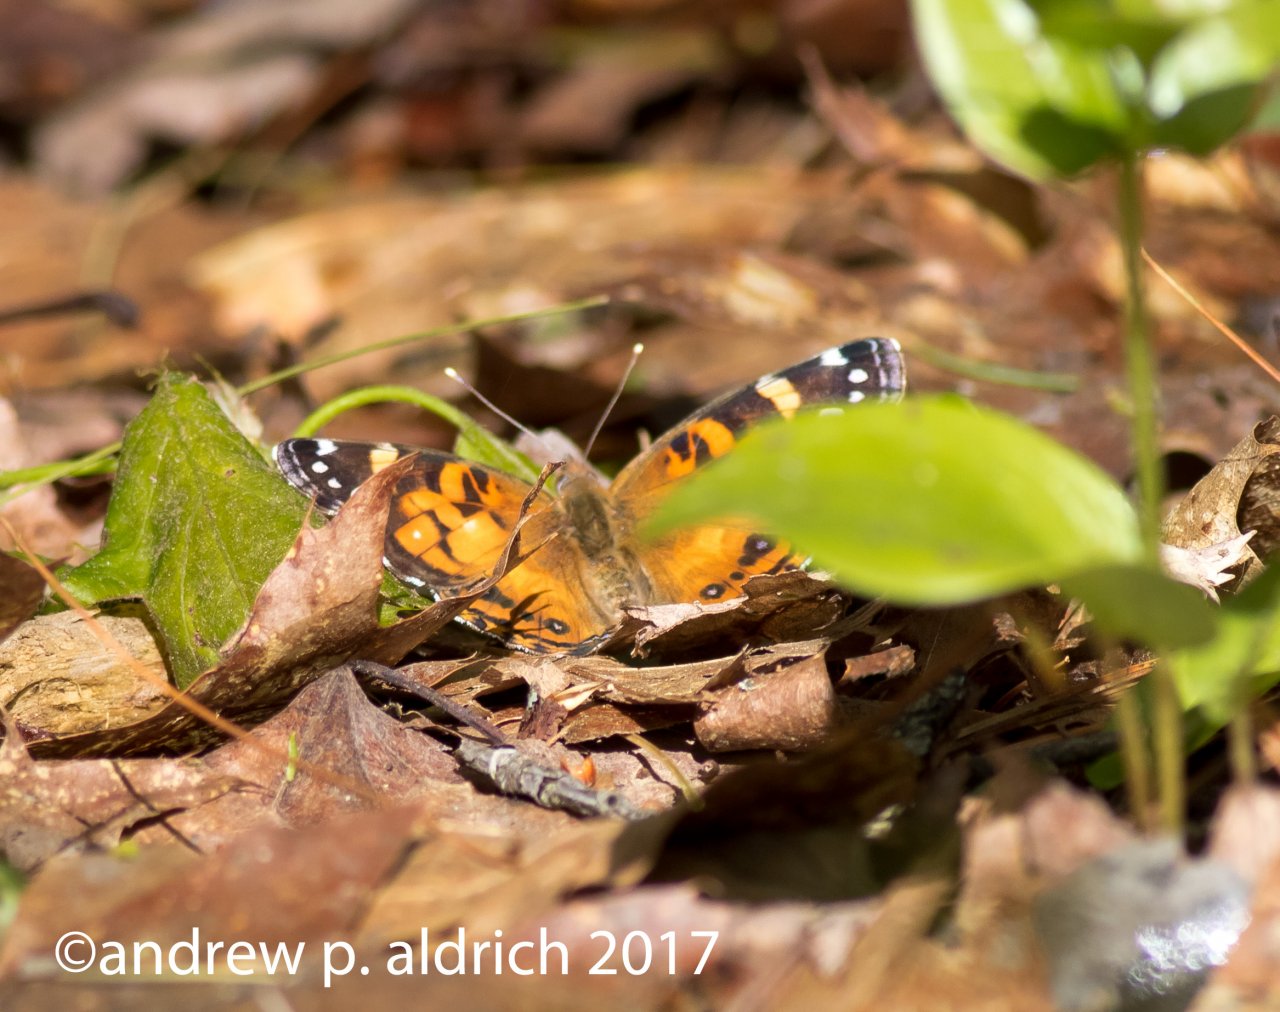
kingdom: Animalia
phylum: Arthropoda
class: Insecta
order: Lepidoptera
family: Nymphalidae
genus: Vanessa
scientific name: Vanessa virginiensis
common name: American Lady
